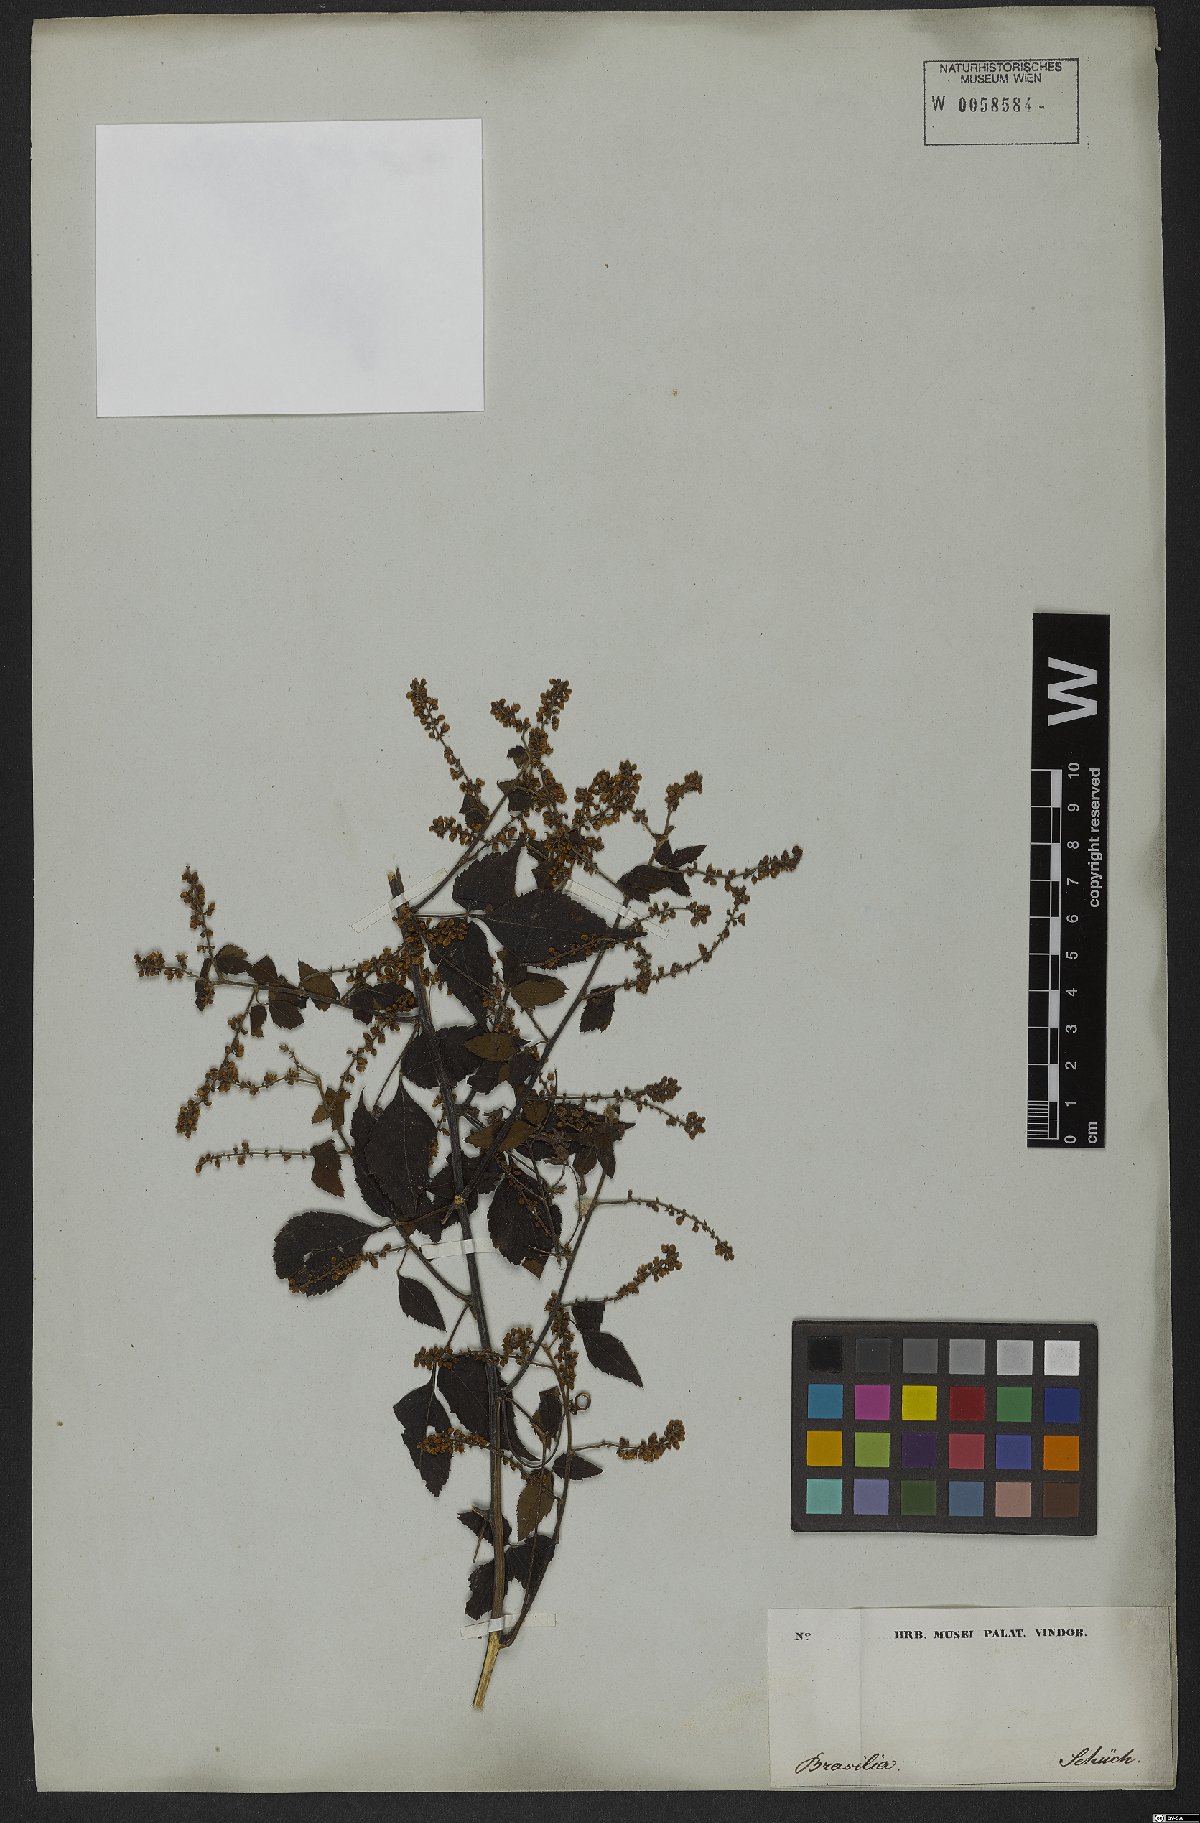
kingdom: Plantae
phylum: Tracheophyta
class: Magnoliopsida
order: Sapindales
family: Sapindaceae
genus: Urvillea
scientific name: Urvillea ulmacea
